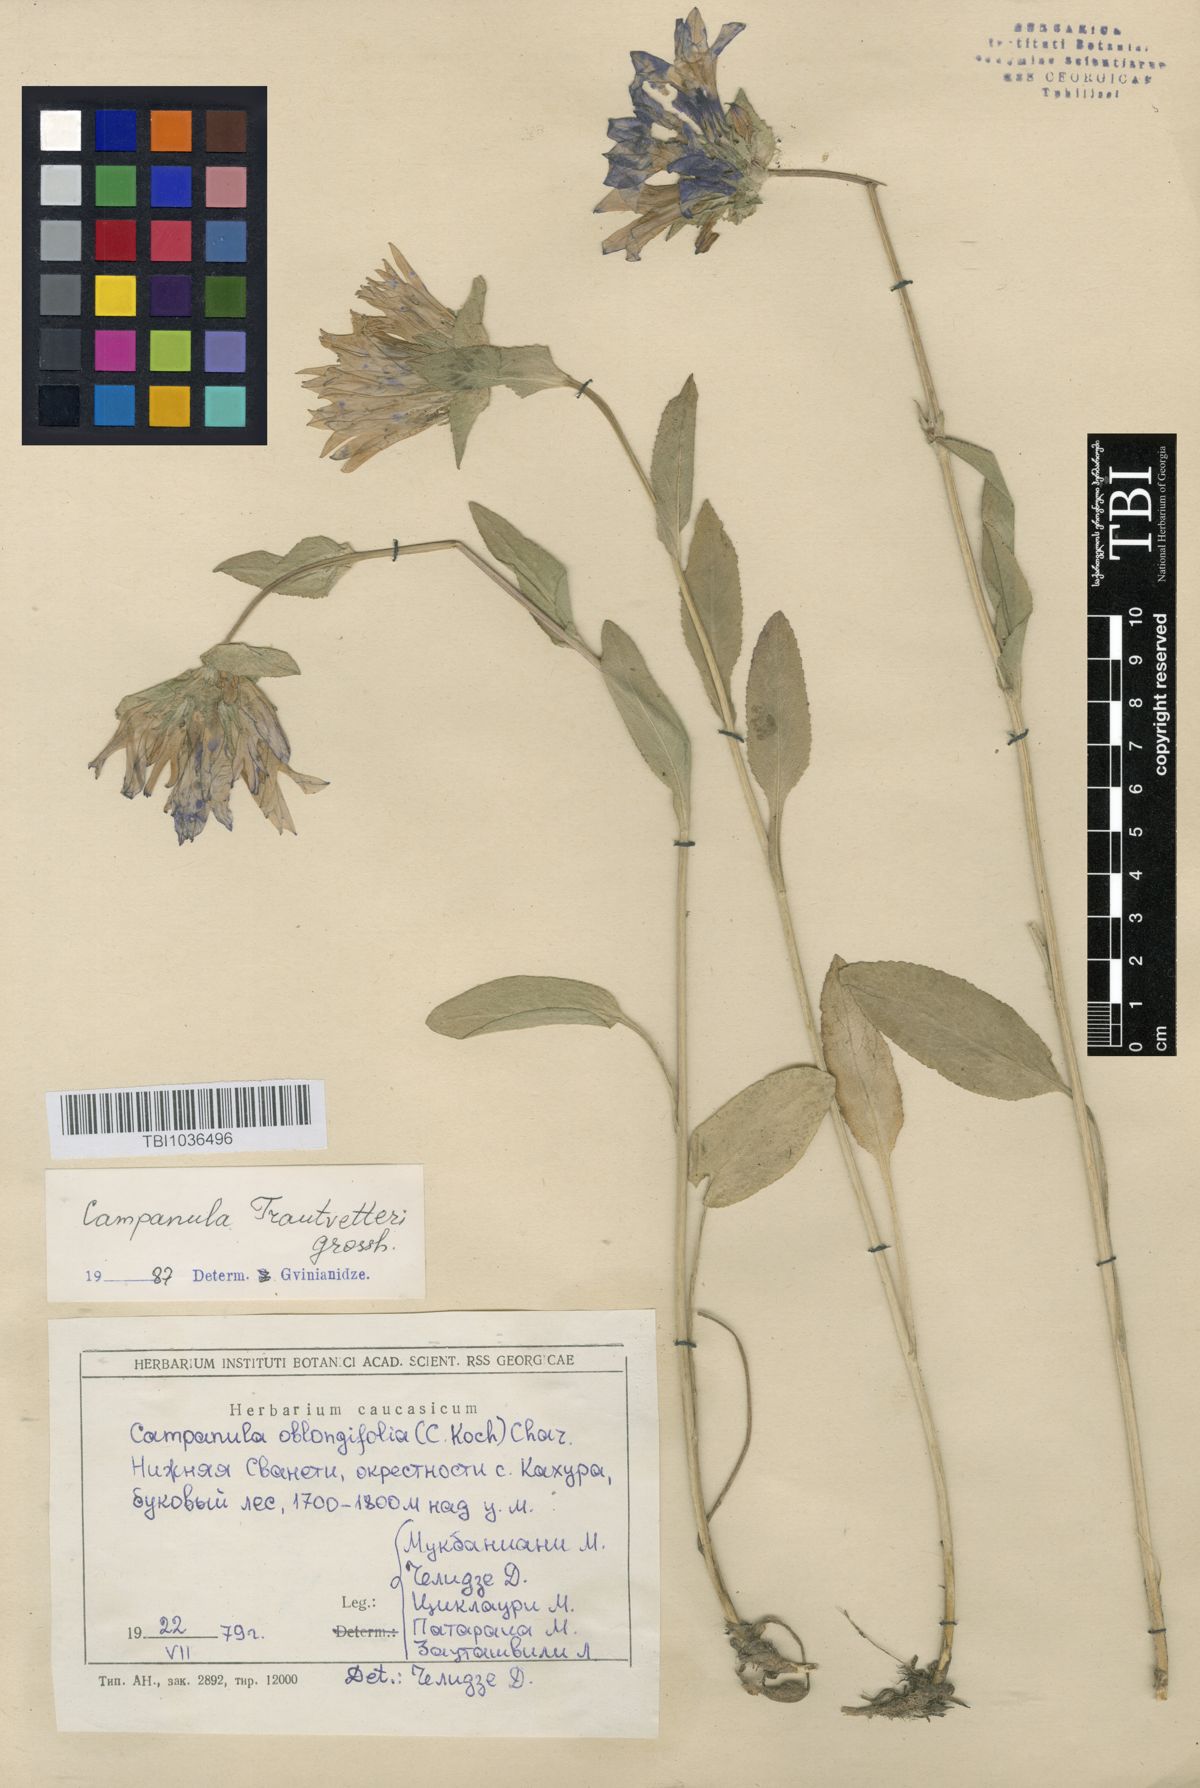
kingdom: Plantae
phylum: Tracheophyta
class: Magnoliopsida
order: Asterales
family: Campanulaceae
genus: Campanula
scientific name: Campanula glomerata
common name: Clustered bellflower
